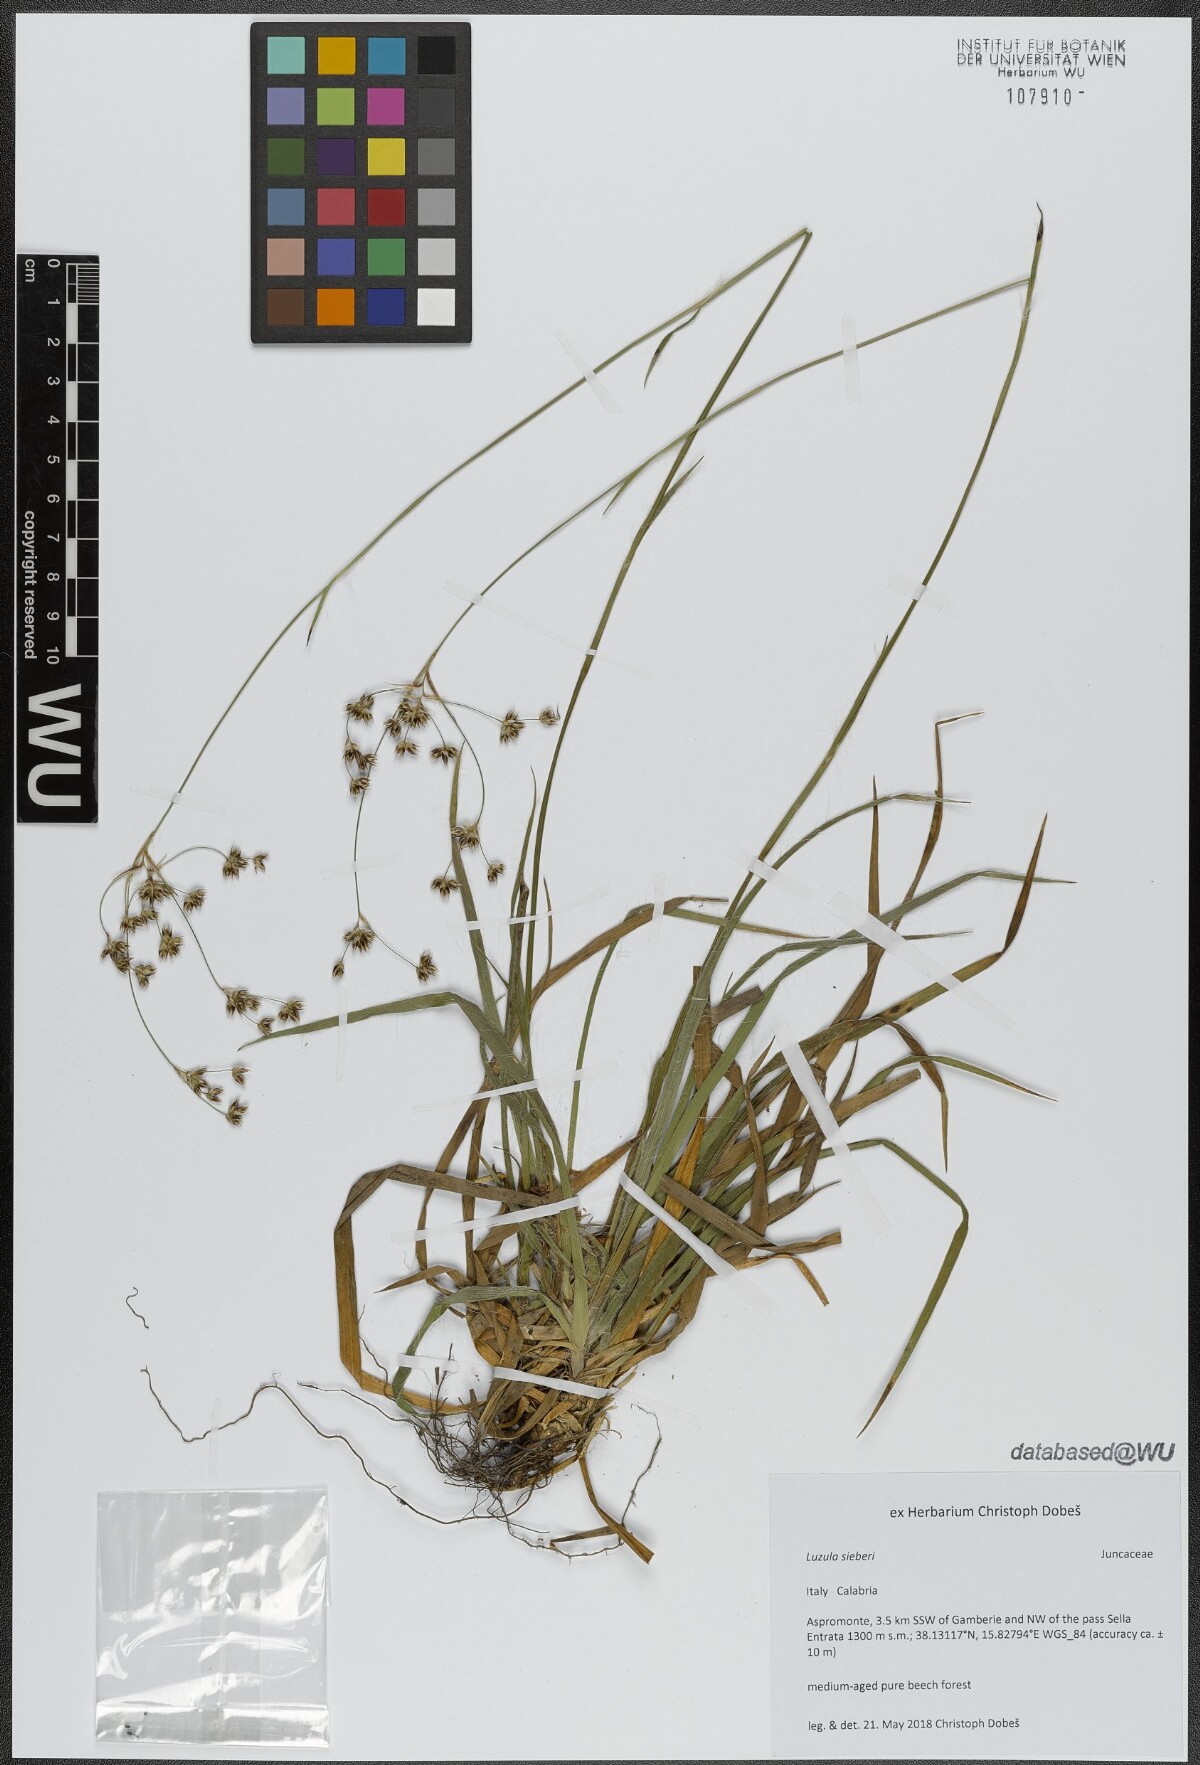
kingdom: Plantae
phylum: Tracheophyta
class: Liliopsida
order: Poales
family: Juncaceae
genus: Luzula
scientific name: Luzula sylvatica
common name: Great wood-rush
